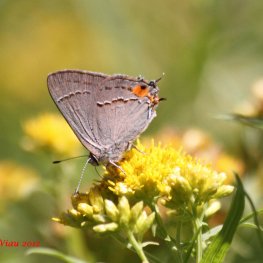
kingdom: Animalia
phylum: Arthropoda
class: Insecta
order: Lepidoptera
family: Lycaenidae
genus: Strymon
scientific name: Strymon melinus
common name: Gray Hairstreak
